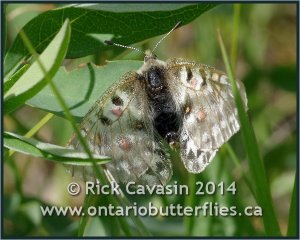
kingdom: Animalia
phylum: Arthropoda
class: Insecta
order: Lepidoptera
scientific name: Lepidoptera
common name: Butterflies
